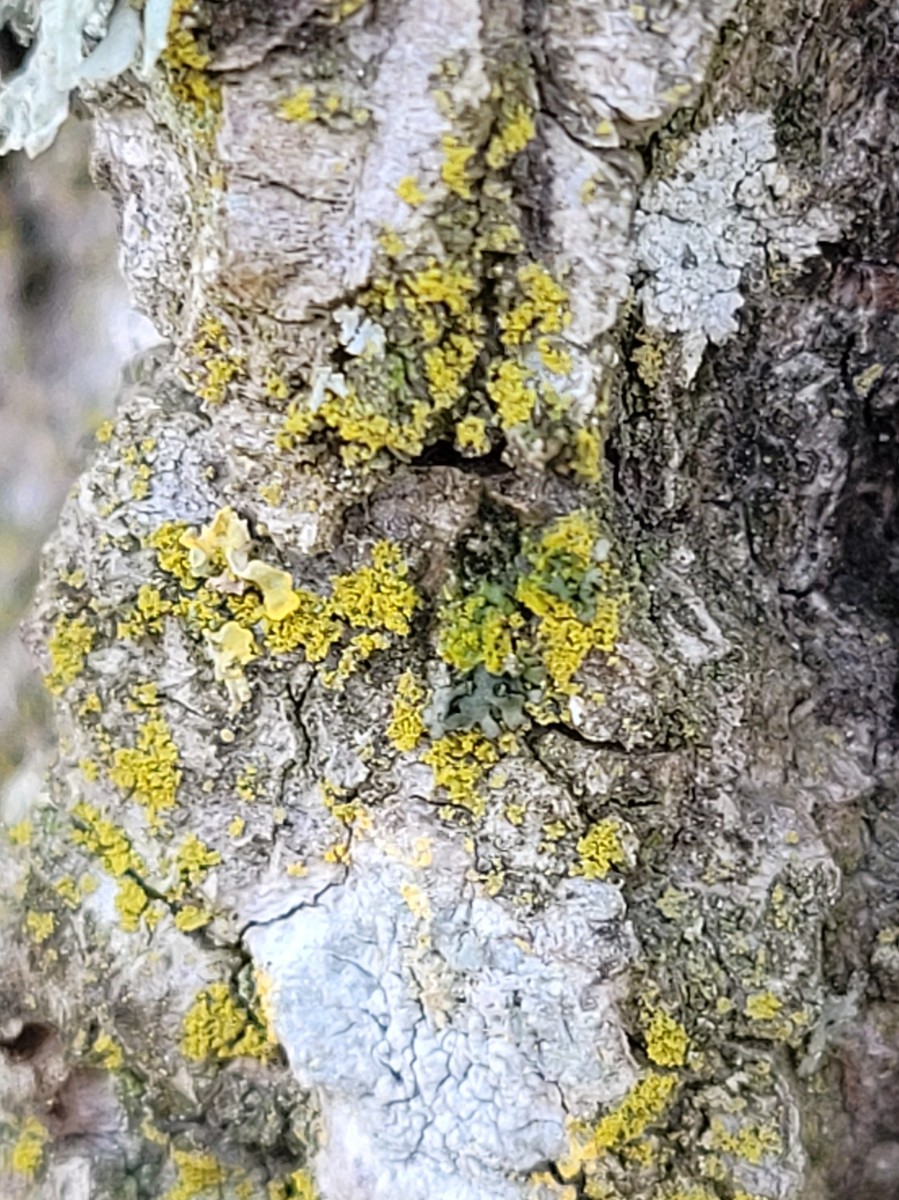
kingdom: Fungi
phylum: Ascomycota
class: Candelariomycetes
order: Candelariales
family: Candelariaceae
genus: Candelaria
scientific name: Candelaria pacifica
